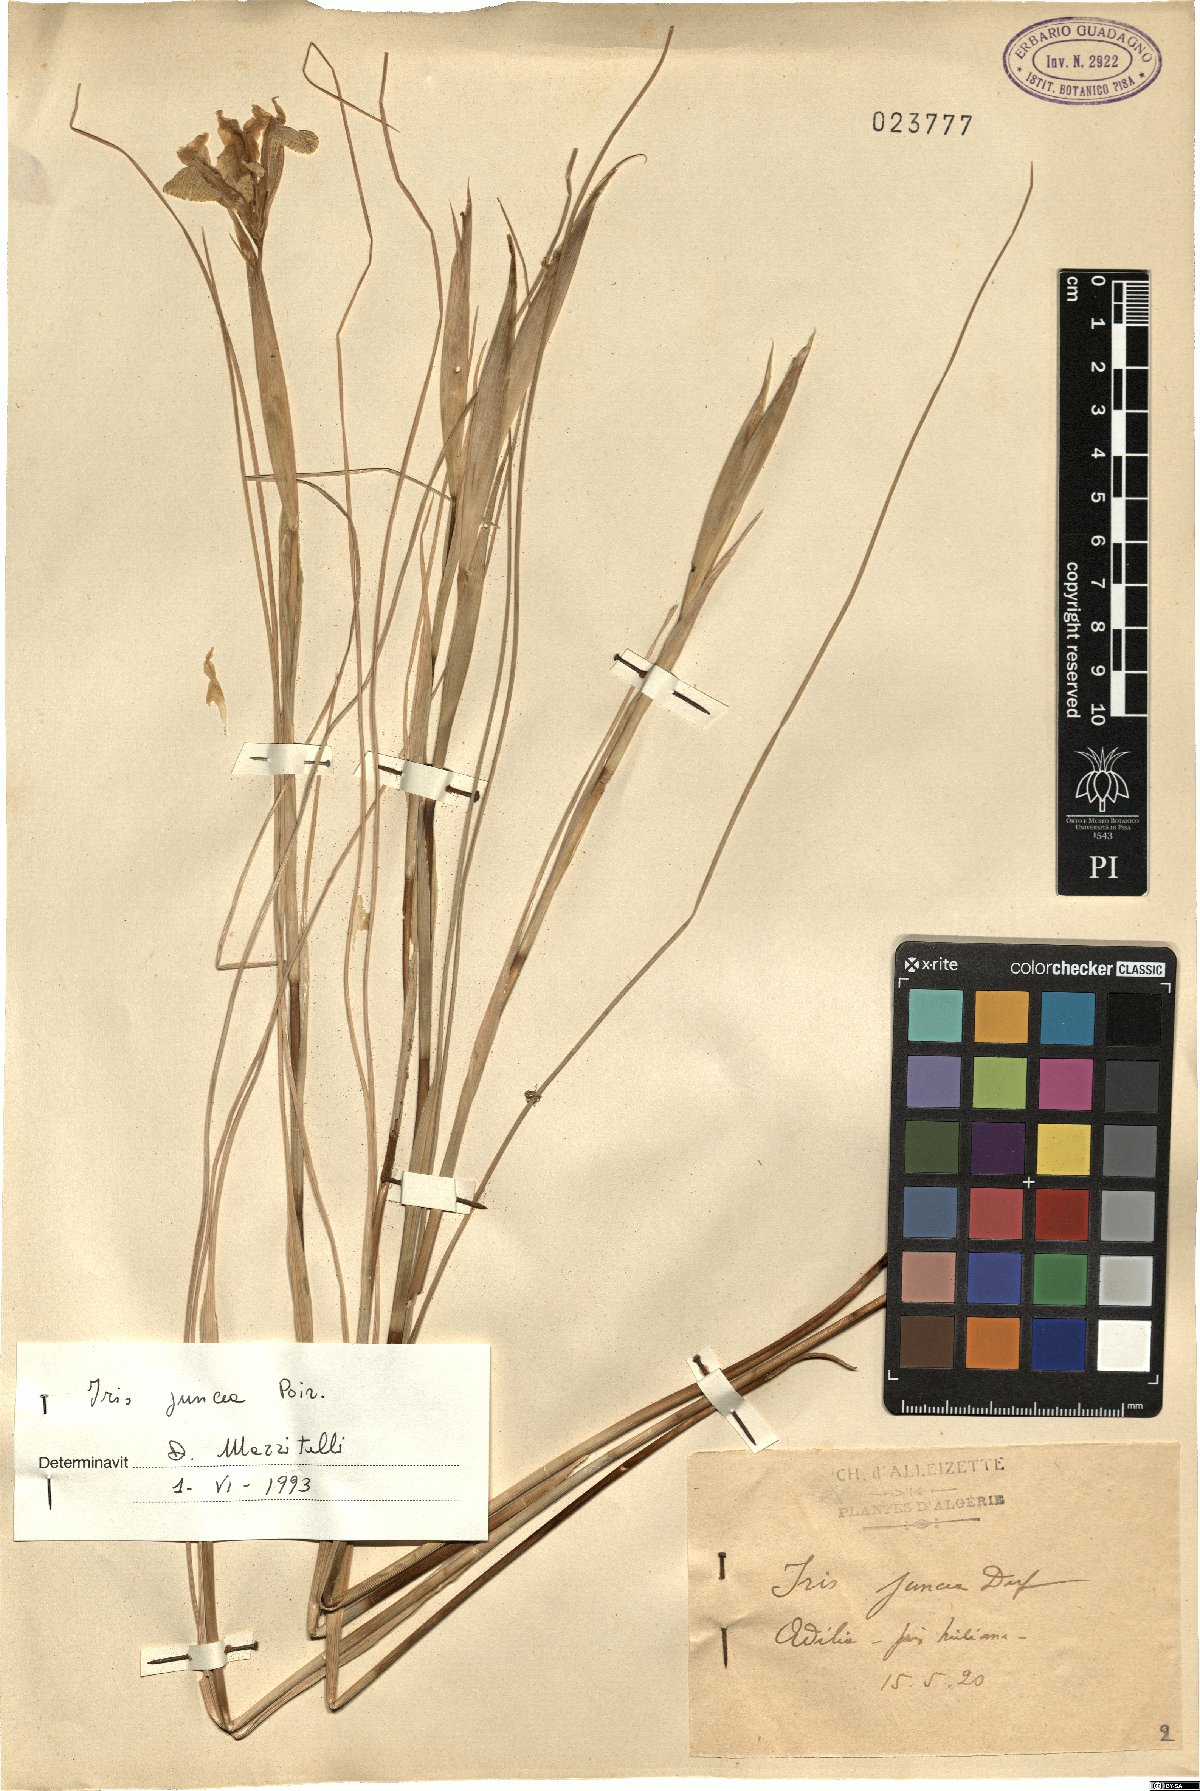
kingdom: Plantae
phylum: Tracheophyta
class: Liliopsida
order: Asparagales
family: Iridaceae
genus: Iris
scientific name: Iris juncea
